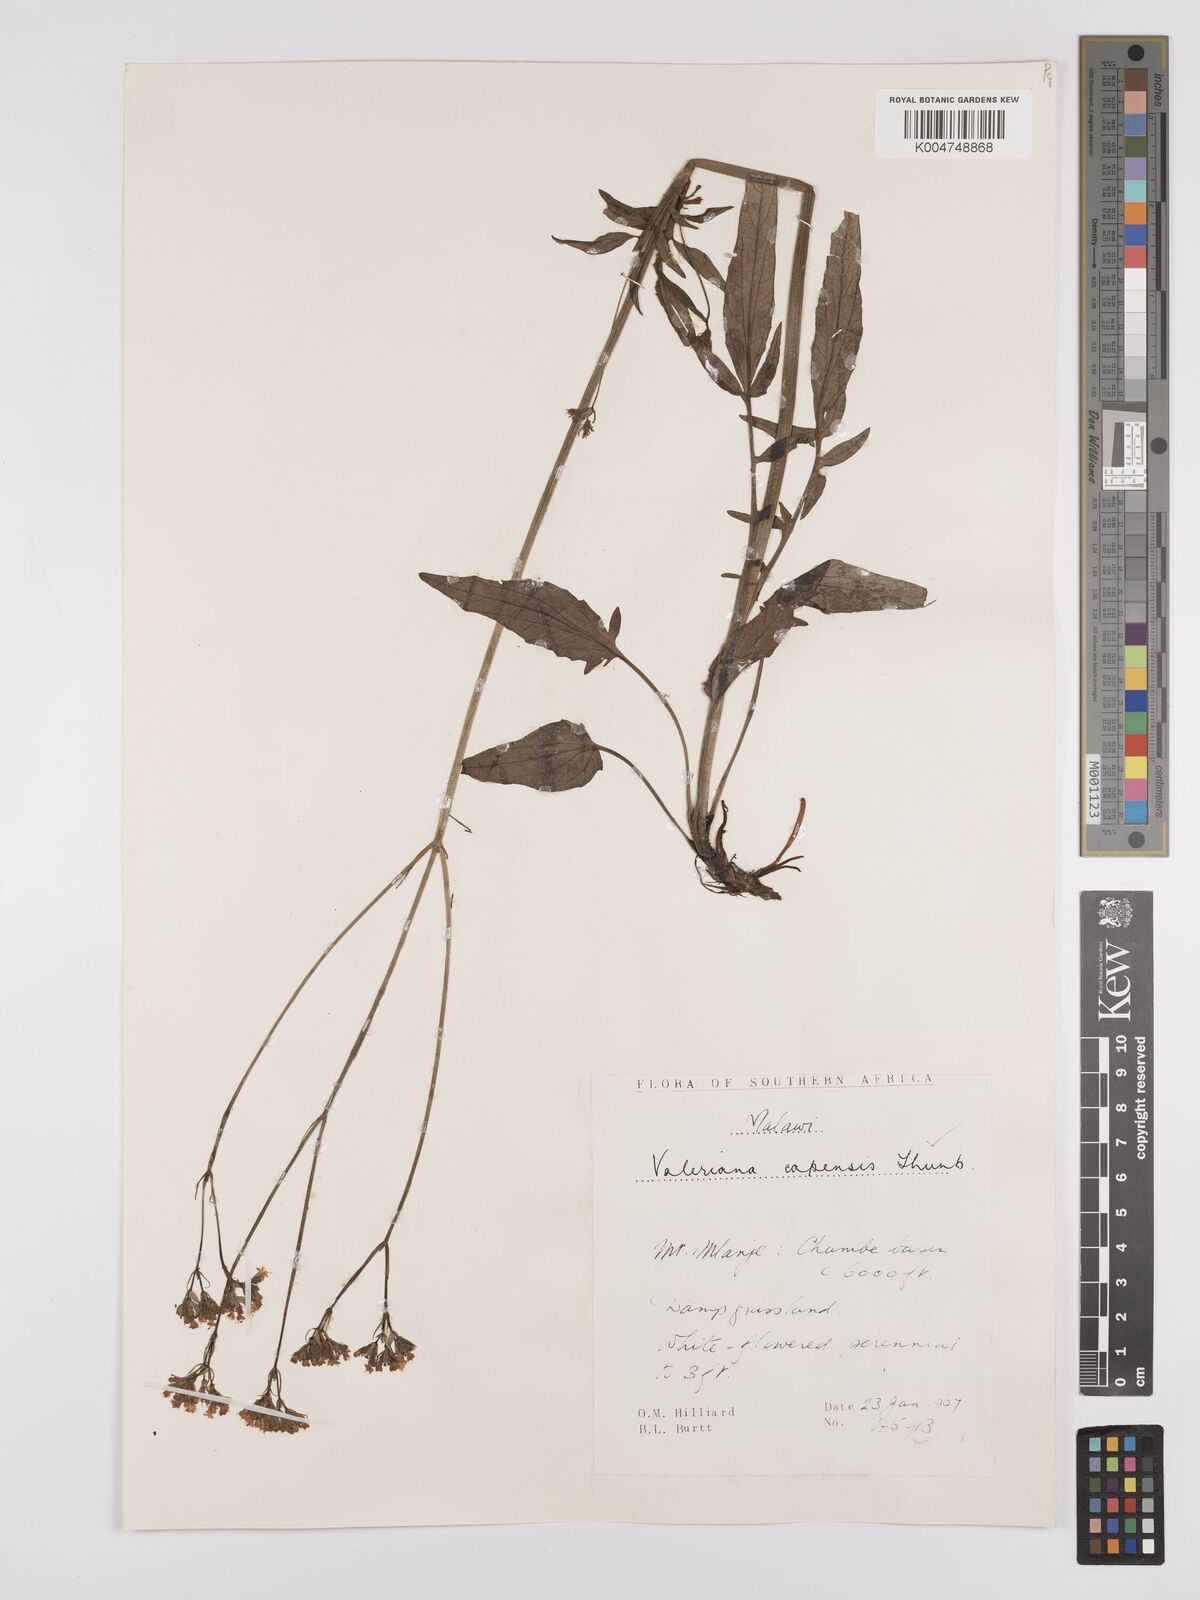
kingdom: Plantae
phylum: Tracheophyta
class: Magnoliopsida
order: Dipsacales
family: Caprifoliaceae
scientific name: Caprifoliaceae
